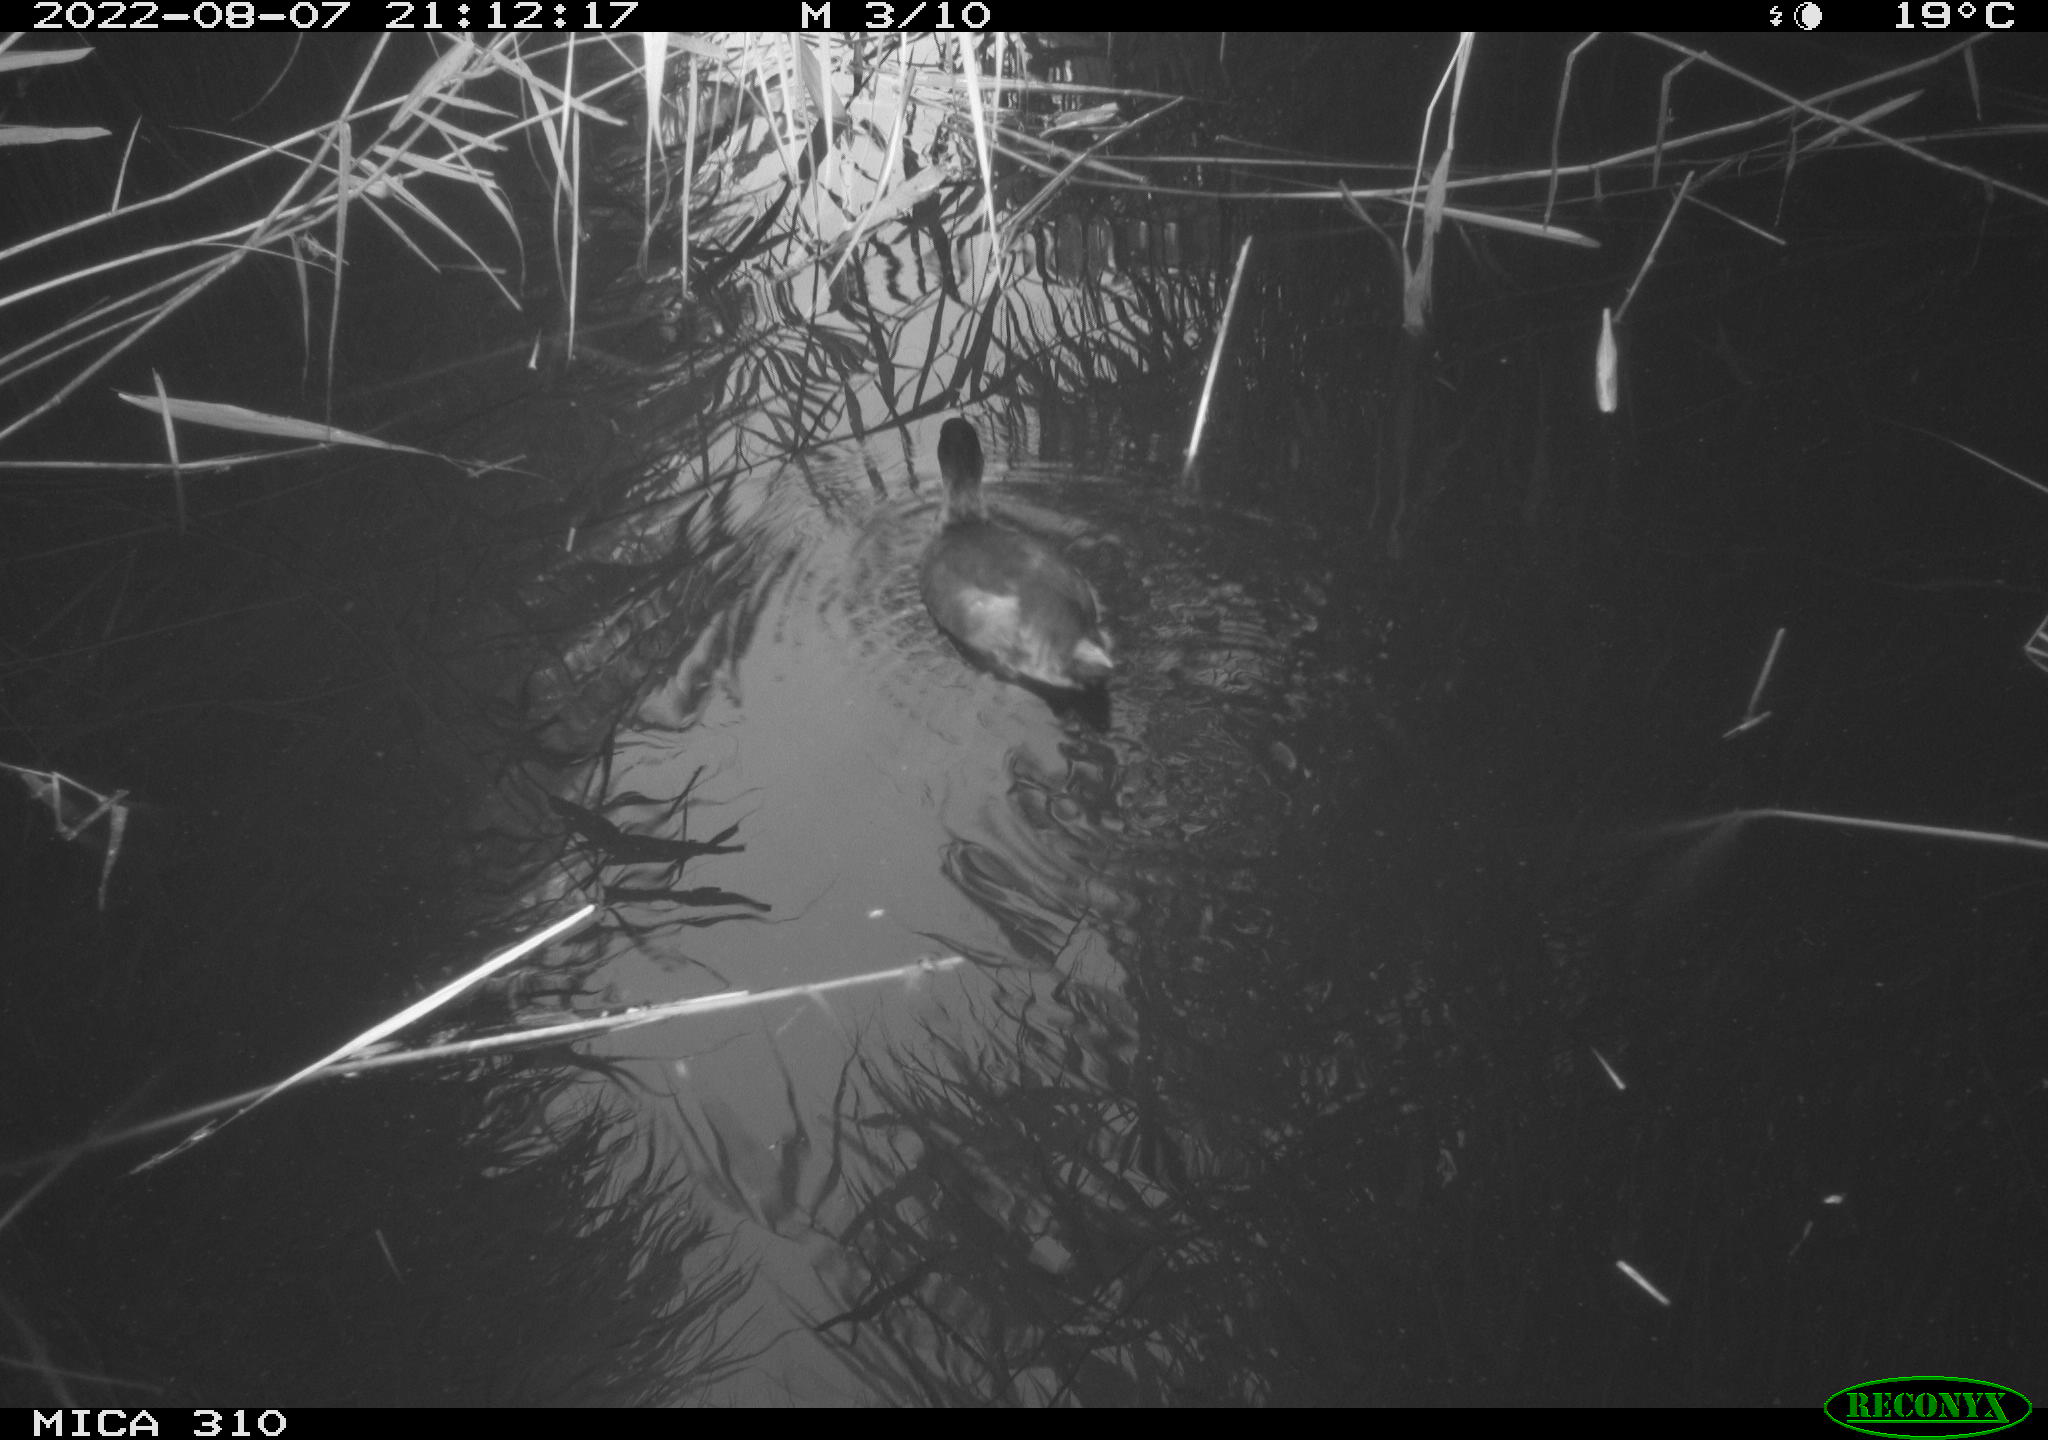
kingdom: Animalia
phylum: Chordata
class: Aves
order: Gruiformes
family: Rallidae
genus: Gallinula
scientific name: Gallinula chloropus
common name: Common moorhen
